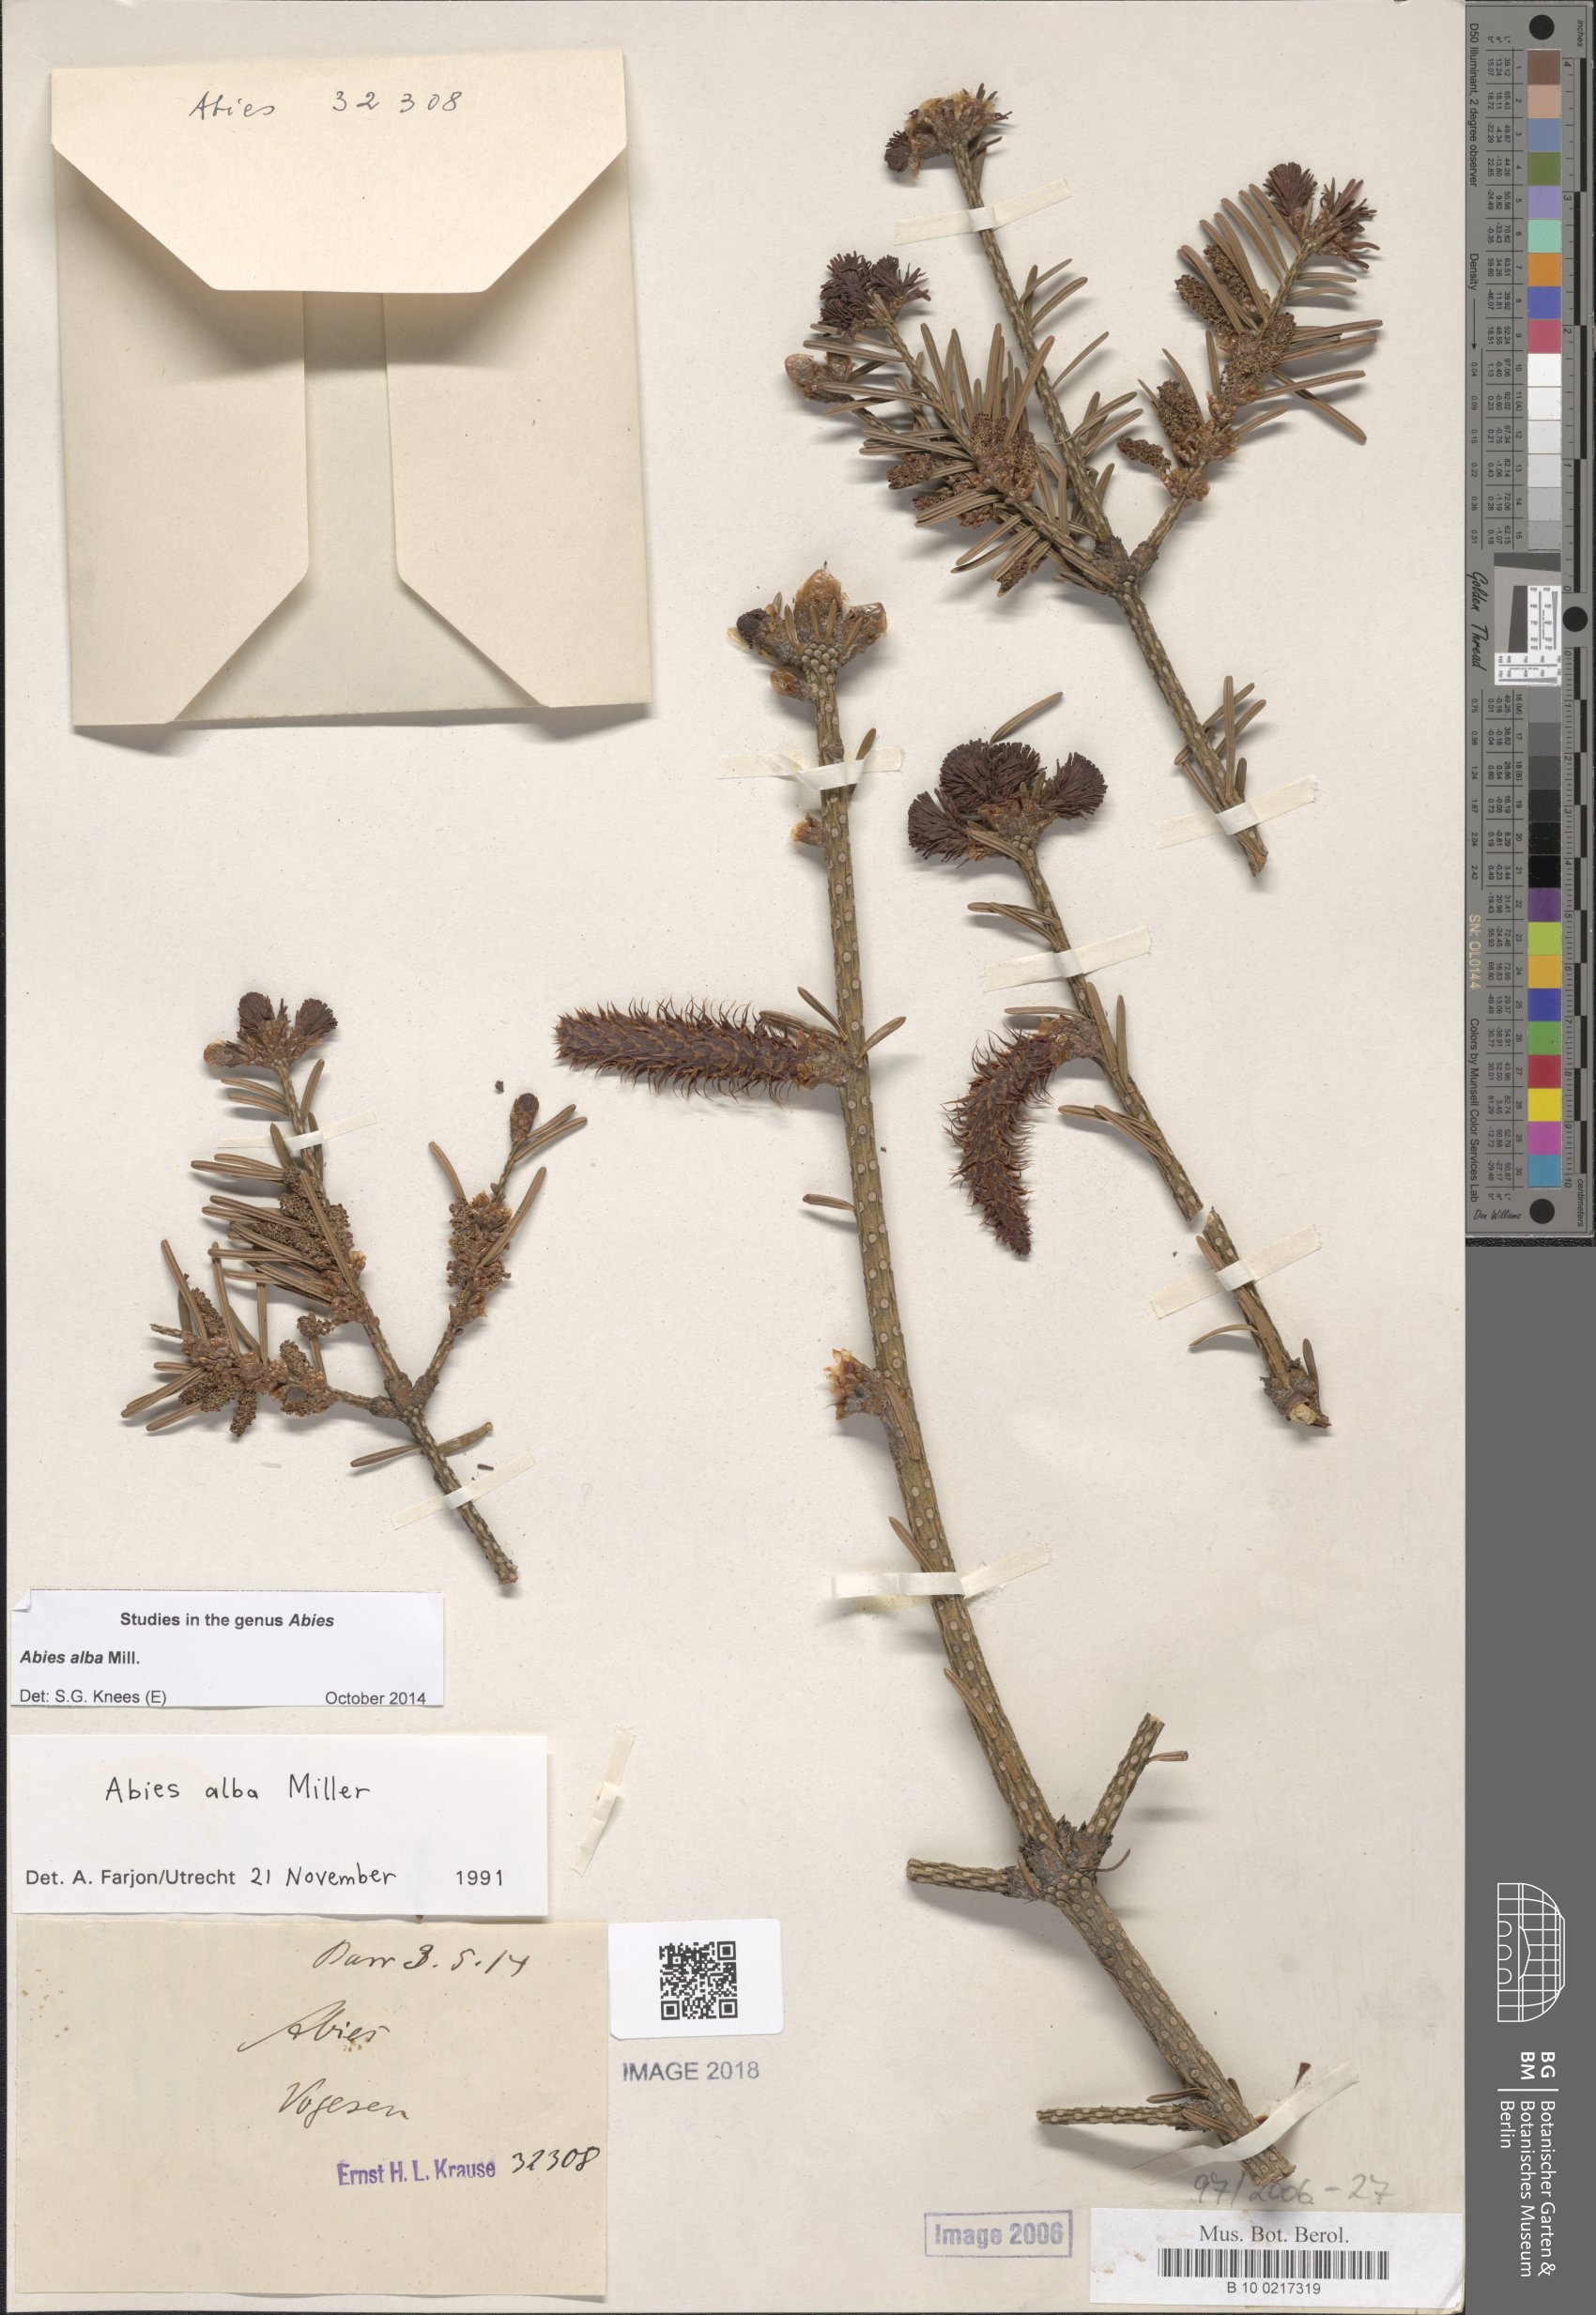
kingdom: Plantae
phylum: Tracheophyta
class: Pinopsida
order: Pinales
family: Pinaceae
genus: Abies
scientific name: Abies alba
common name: Silver fir
